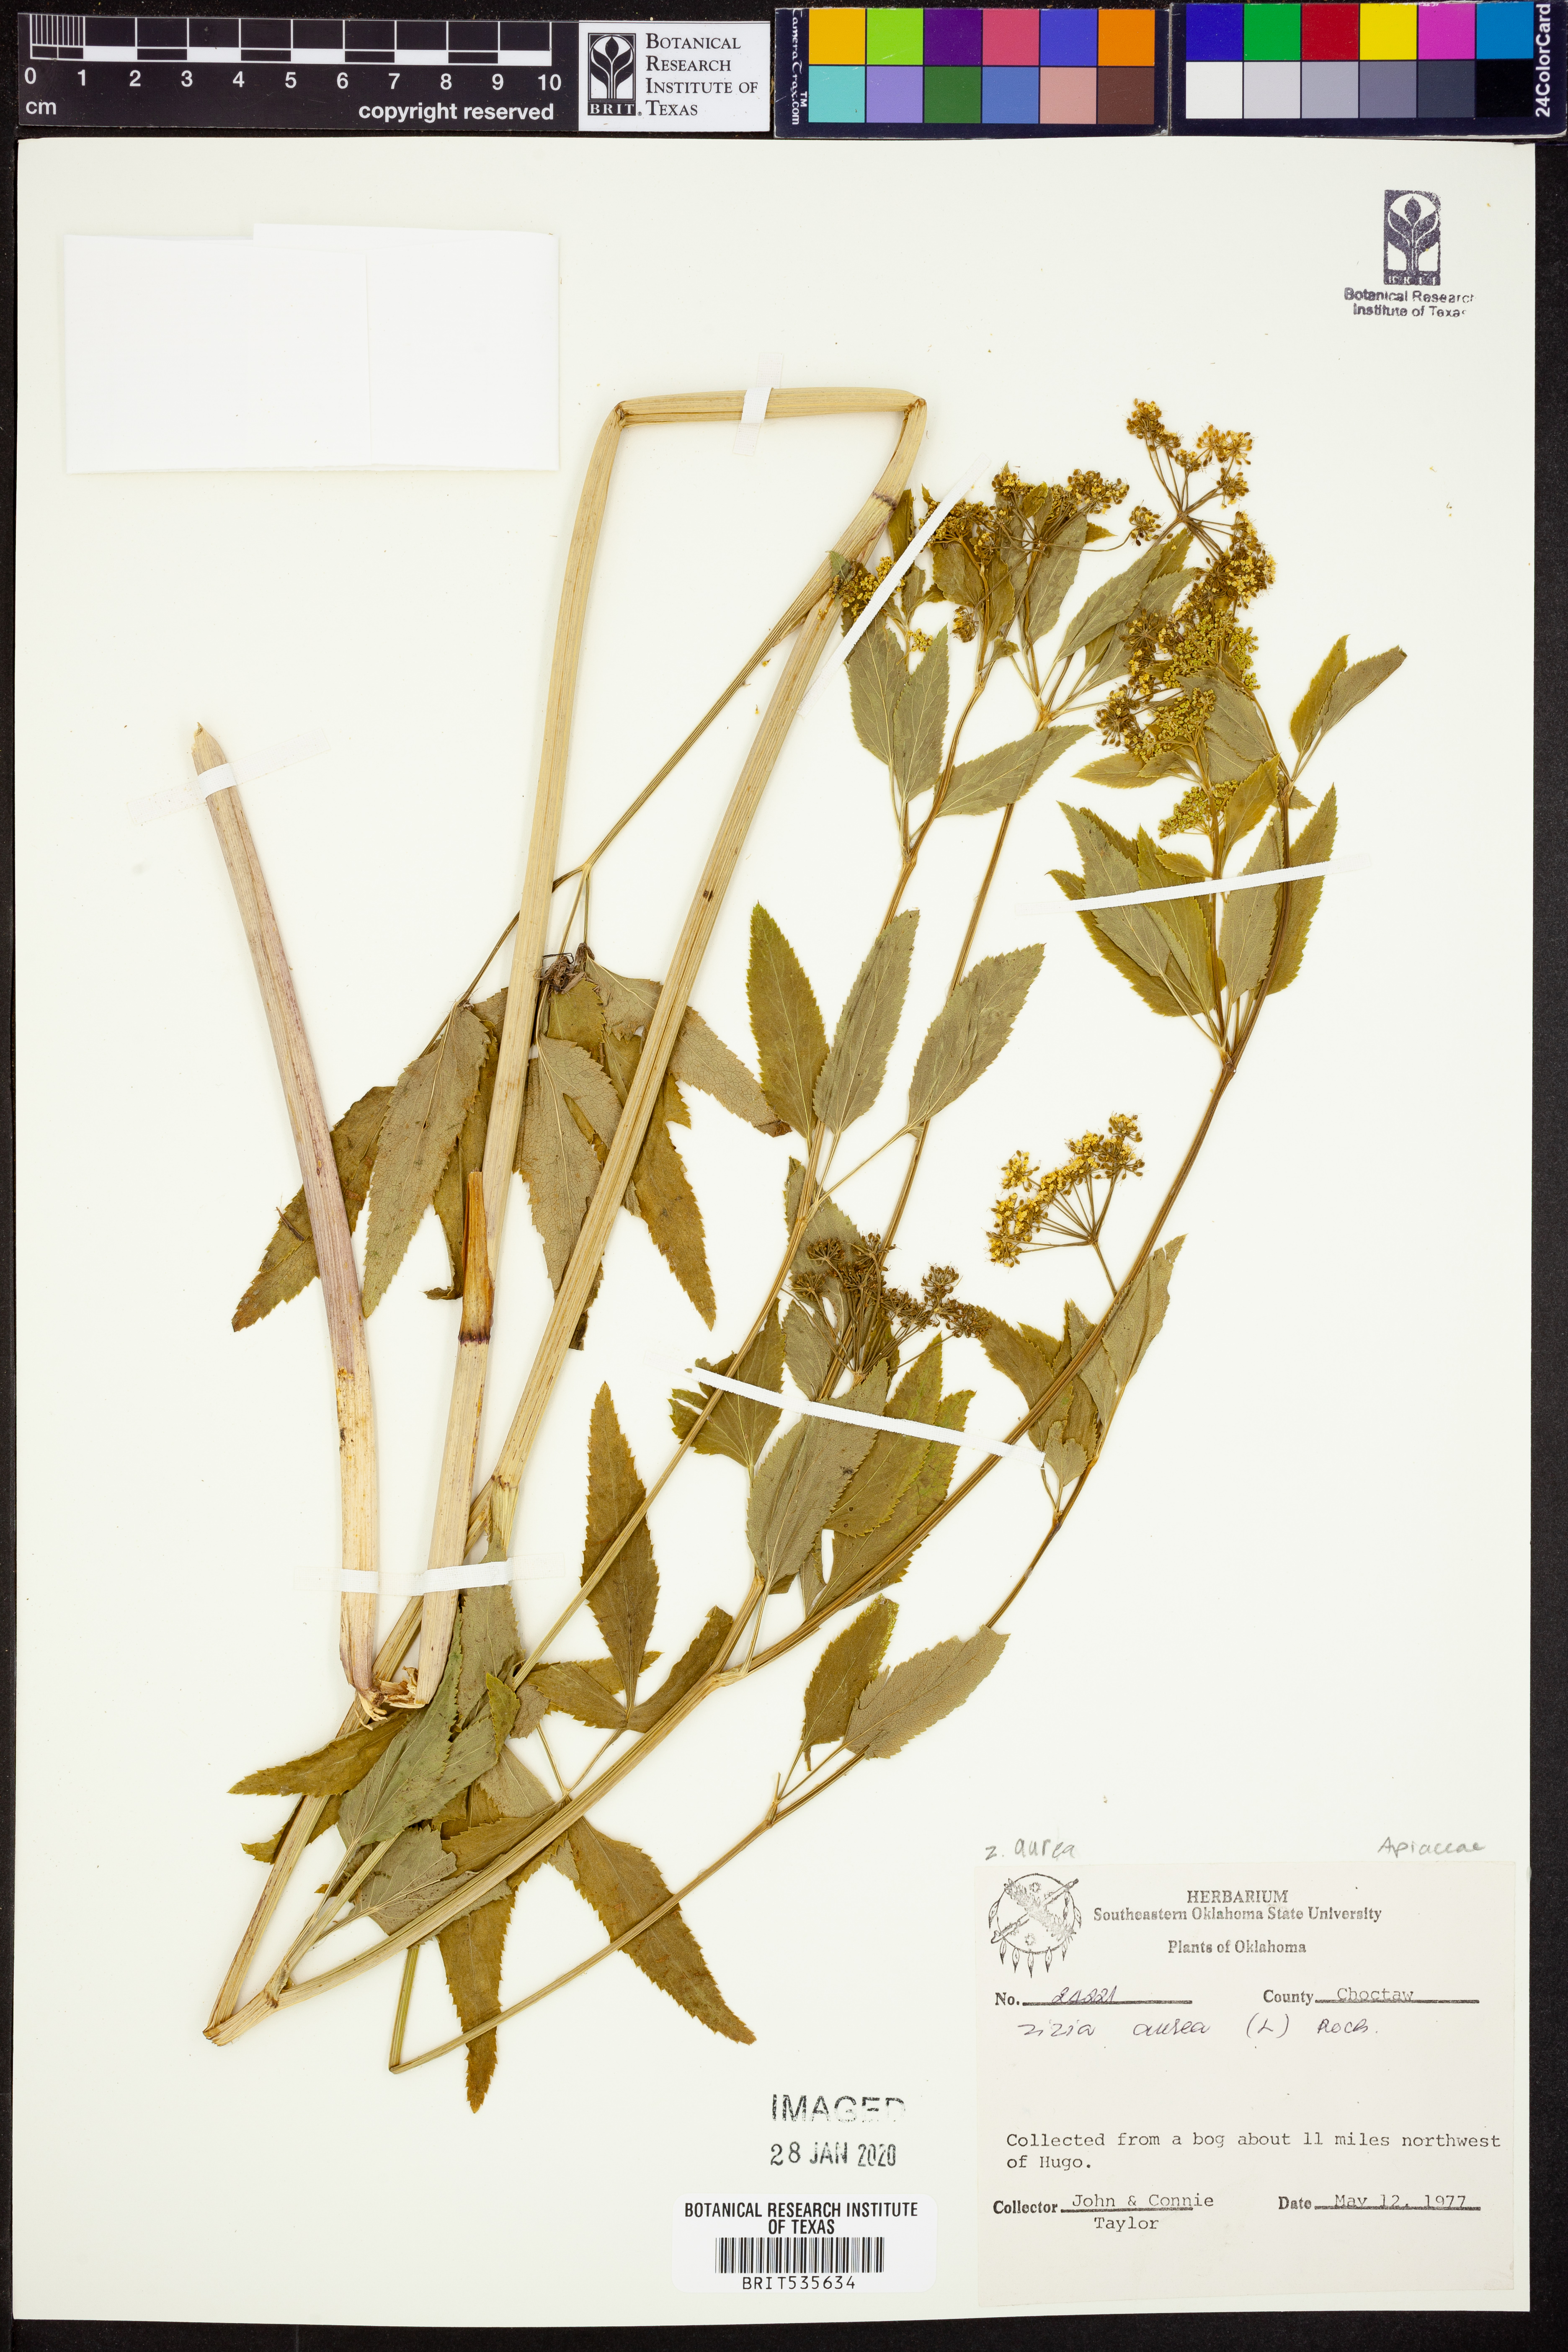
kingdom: Plantae
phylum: Tracheophyta
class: Magnoliopsida
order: Apiales
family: Apiaceae
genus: Zizia
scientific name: Zizia aurea
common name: Golden alexanders
